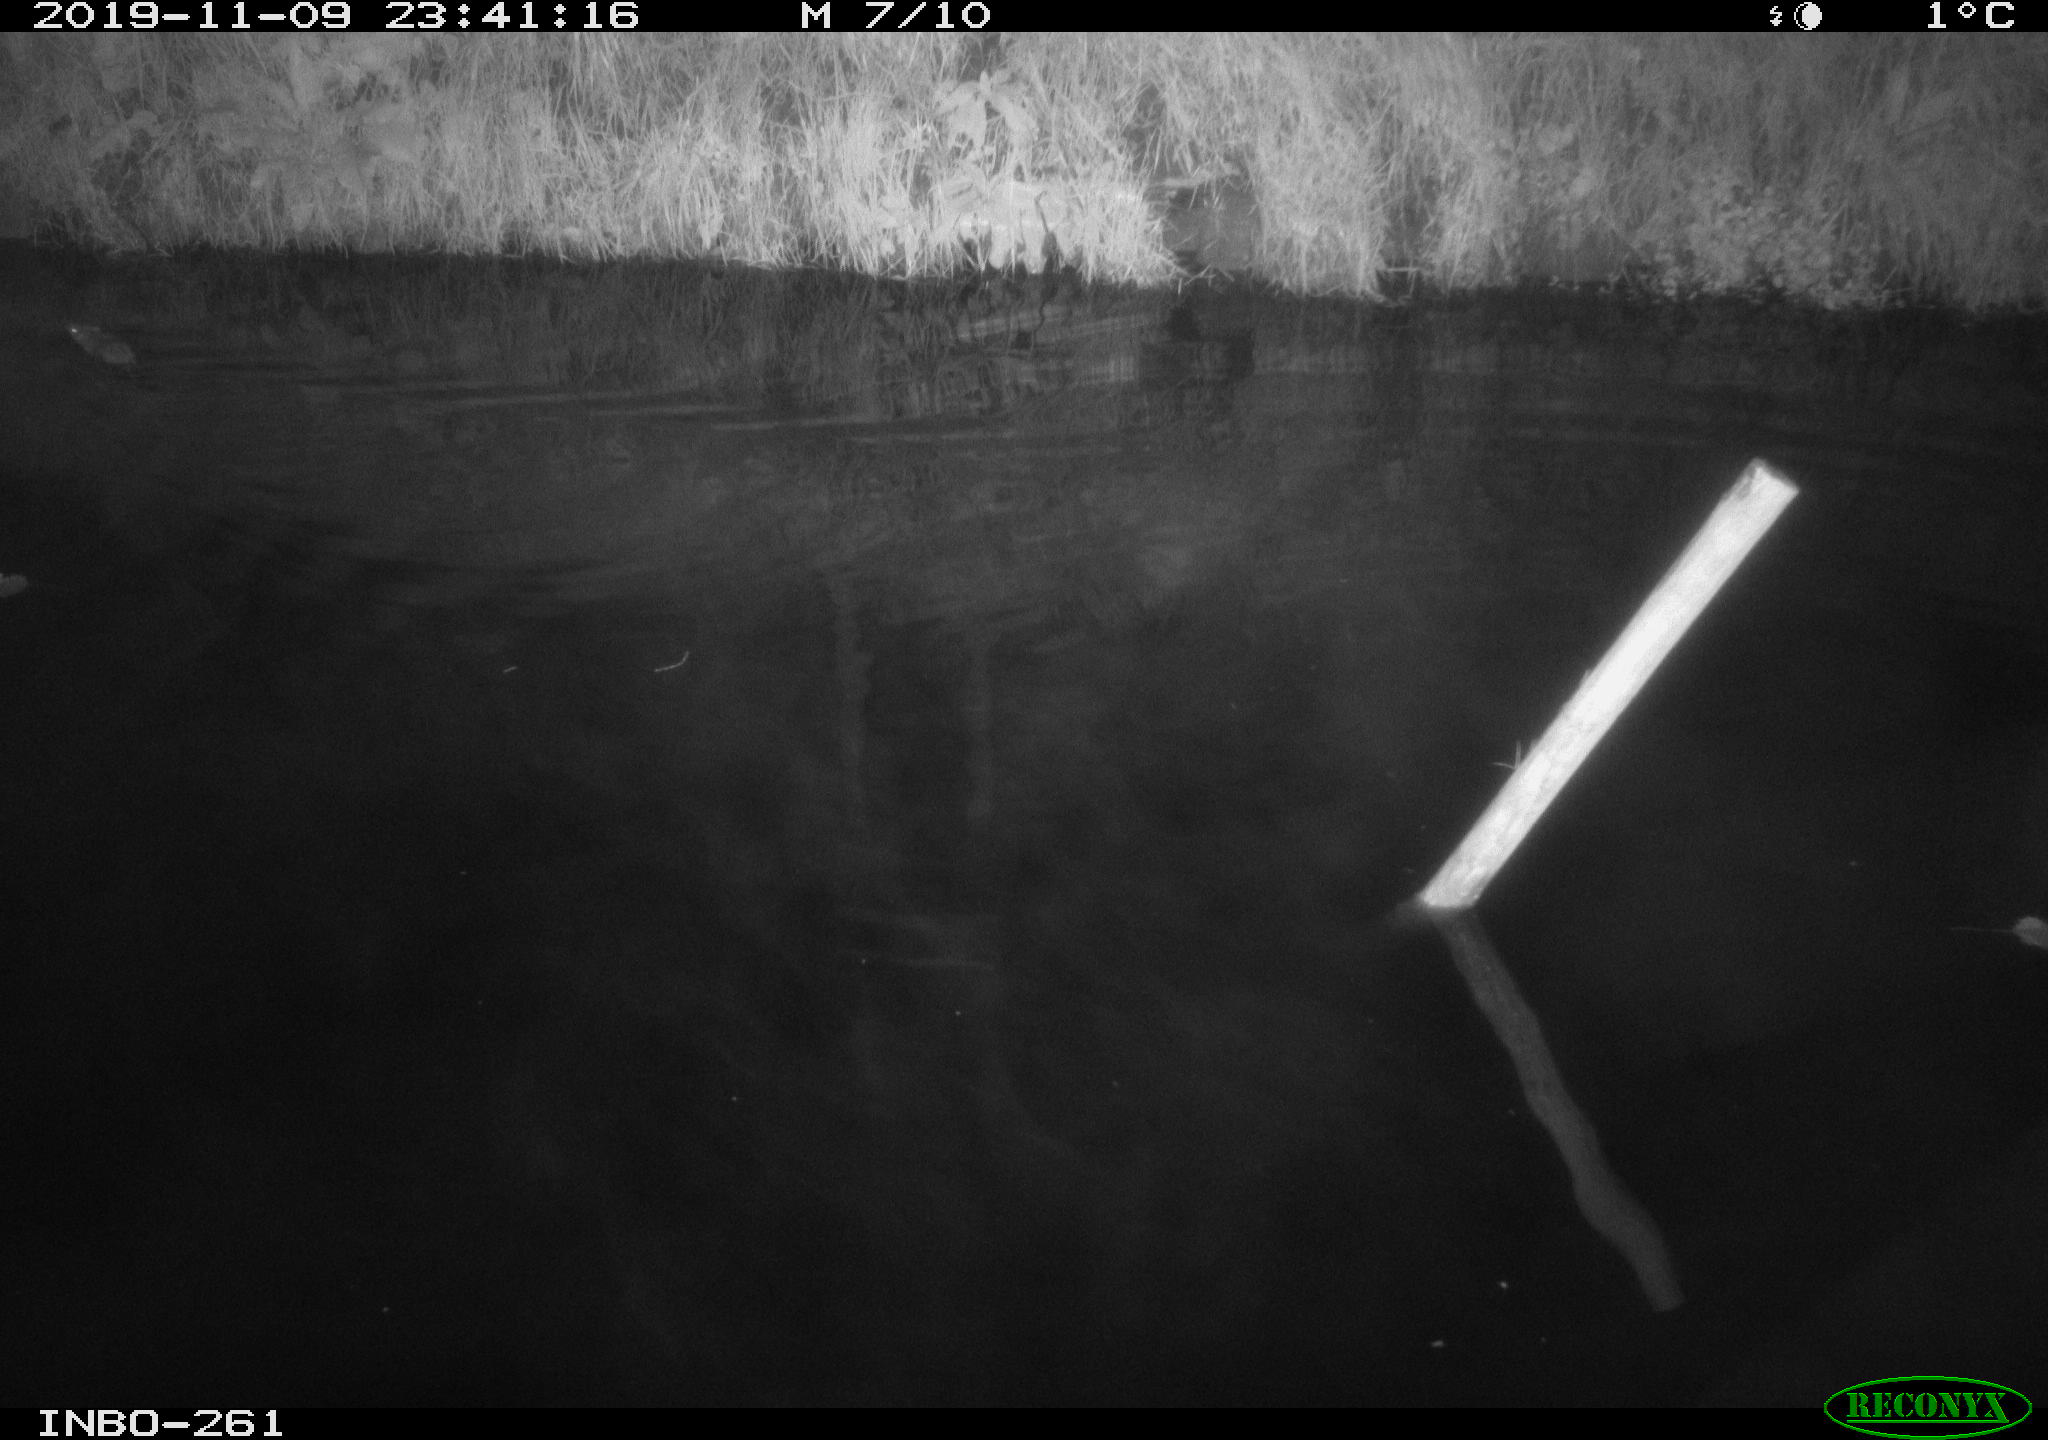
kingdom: Animalia
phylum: Chordata
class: Mammalia
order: Rodentia
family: Muridae
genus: Rattus
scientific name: Rattus norvegicus
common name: Brown rat
